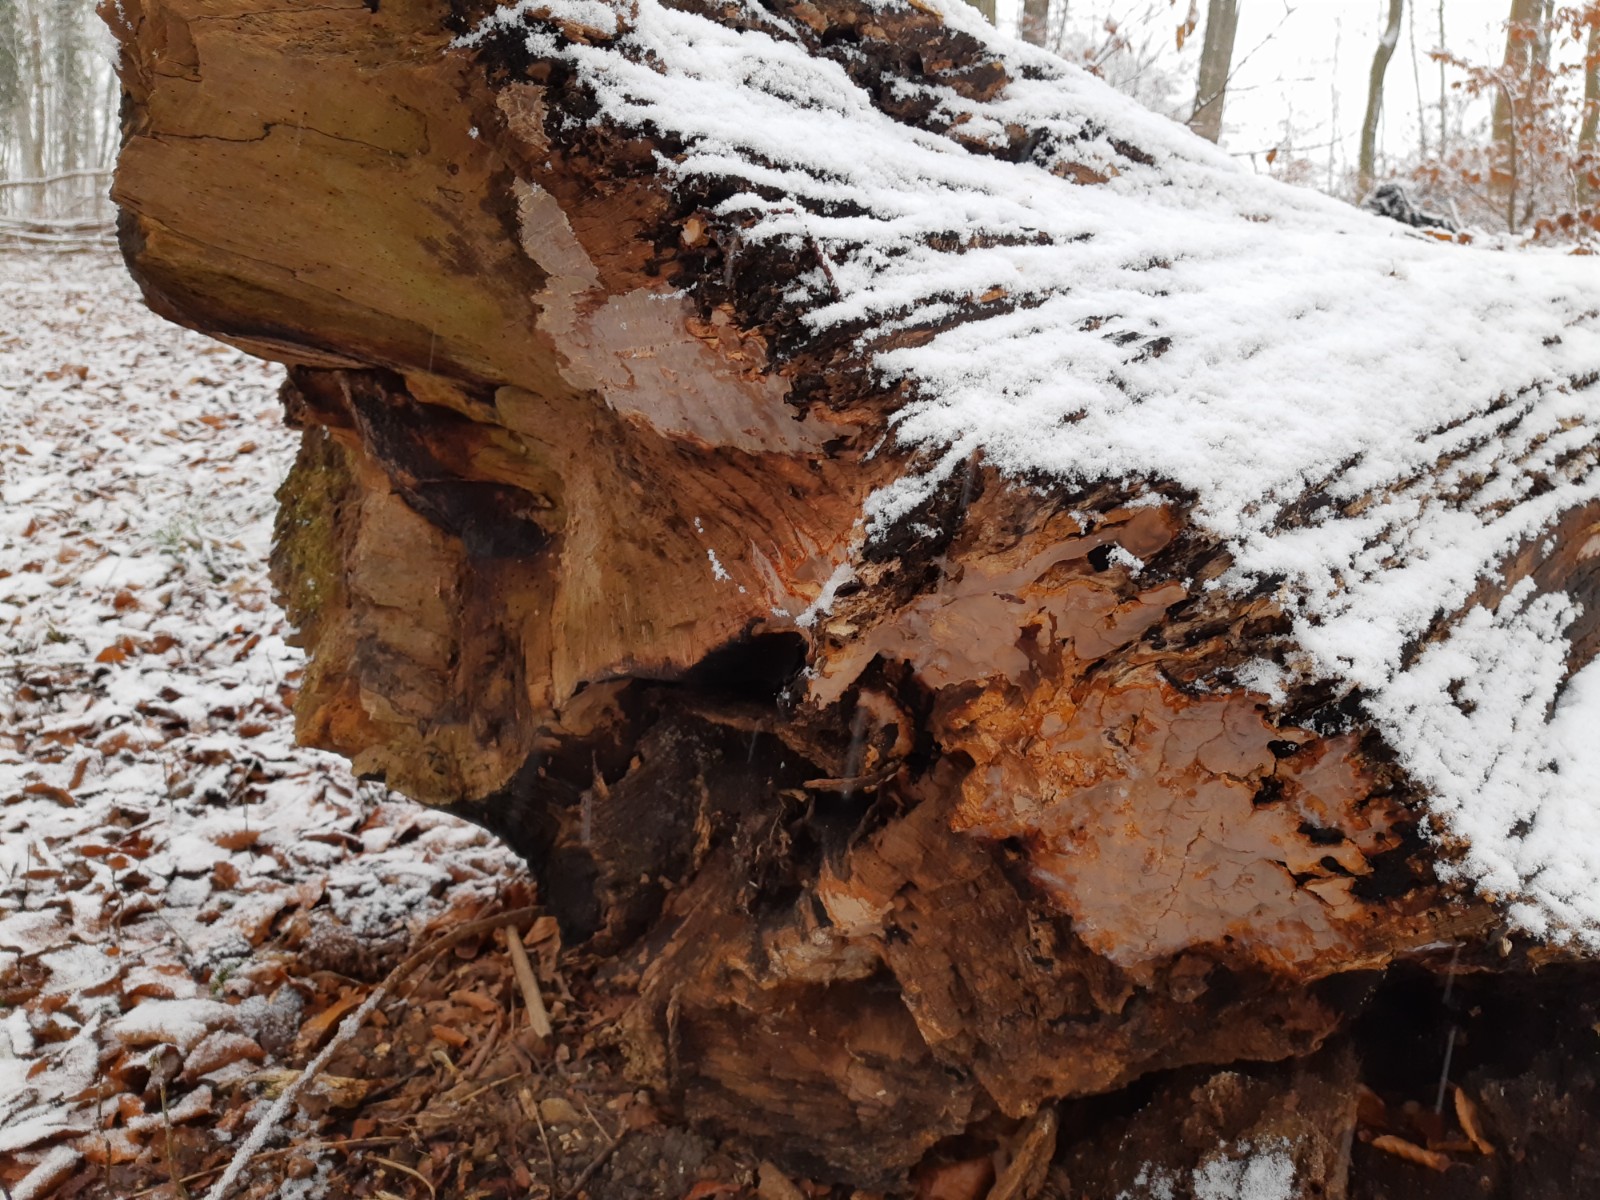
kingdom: Fungi
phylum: Basidiomycota
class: Agaricomycetes
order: Russulales
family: Peniophoraceae
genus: Scytinostroma
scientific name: Scytinostroma hemidichophyticum
